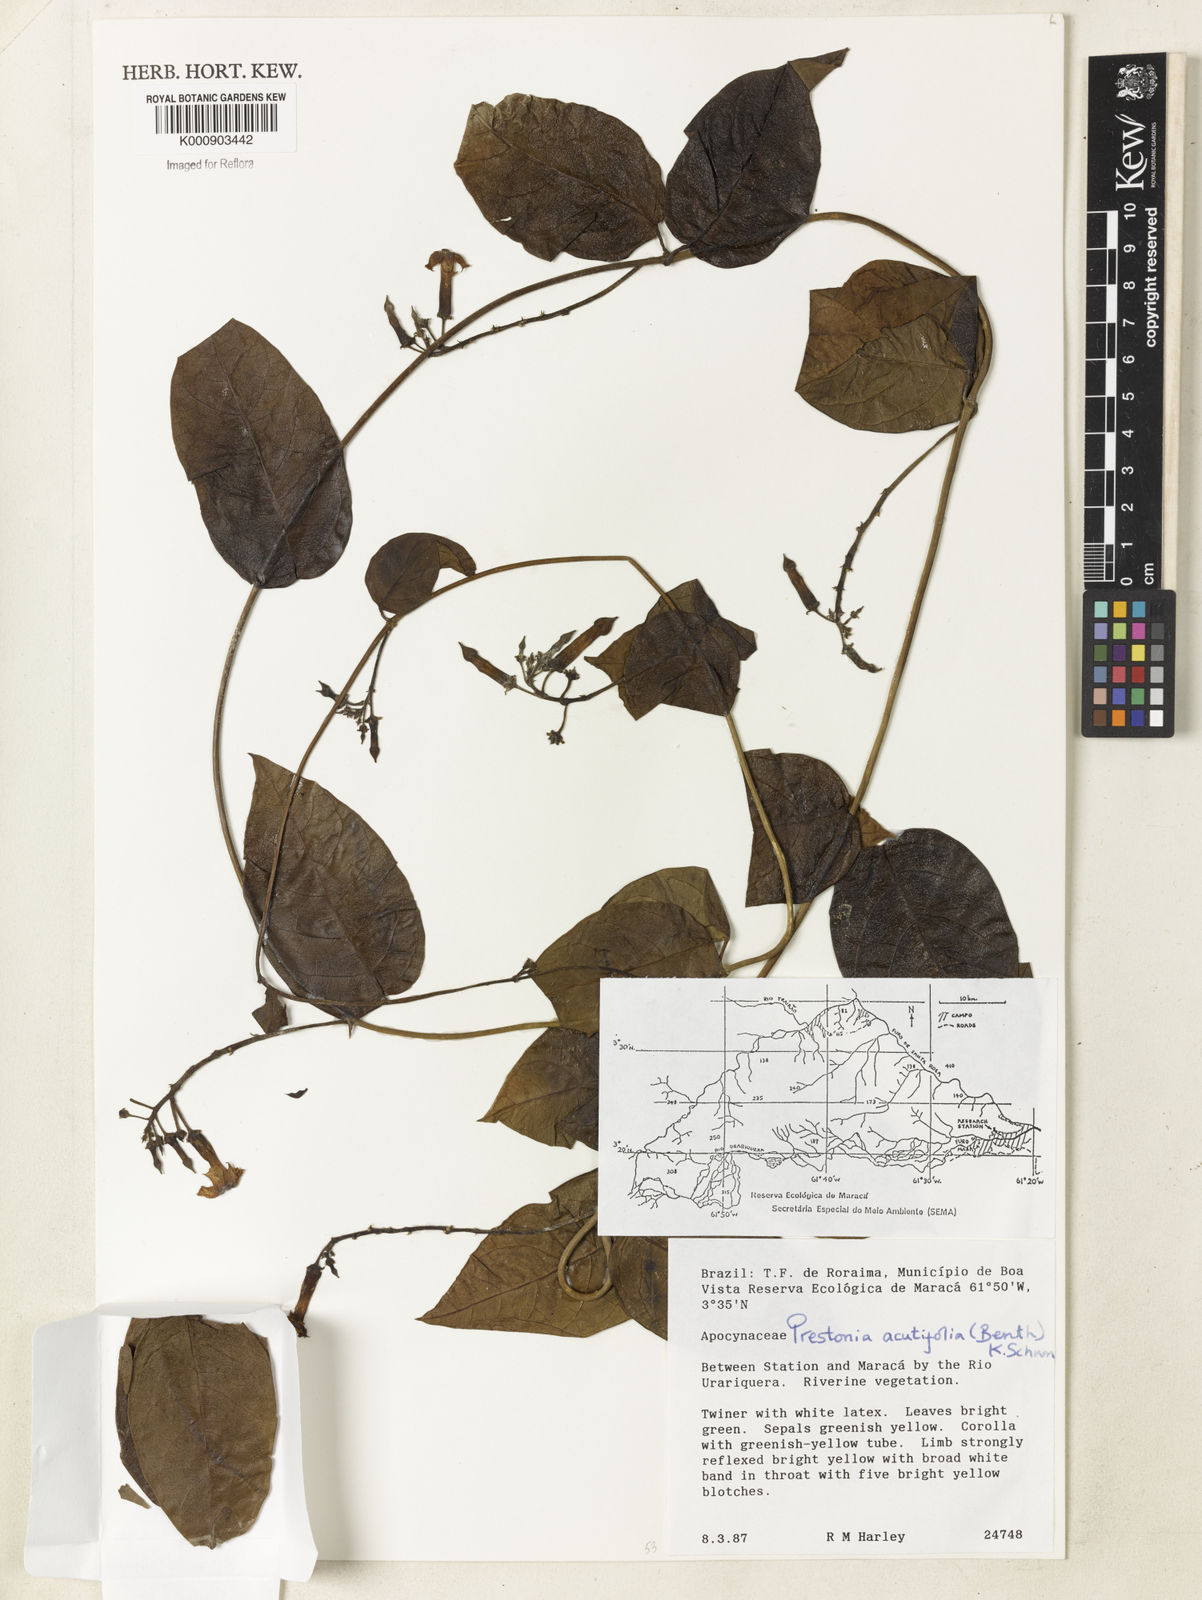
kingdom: Plantae
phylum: Tracheophyta
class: Magnoliopsida
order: Gentianales
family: Apocynaceae
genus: Prestonia
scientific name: Prestonia quinquangularis
